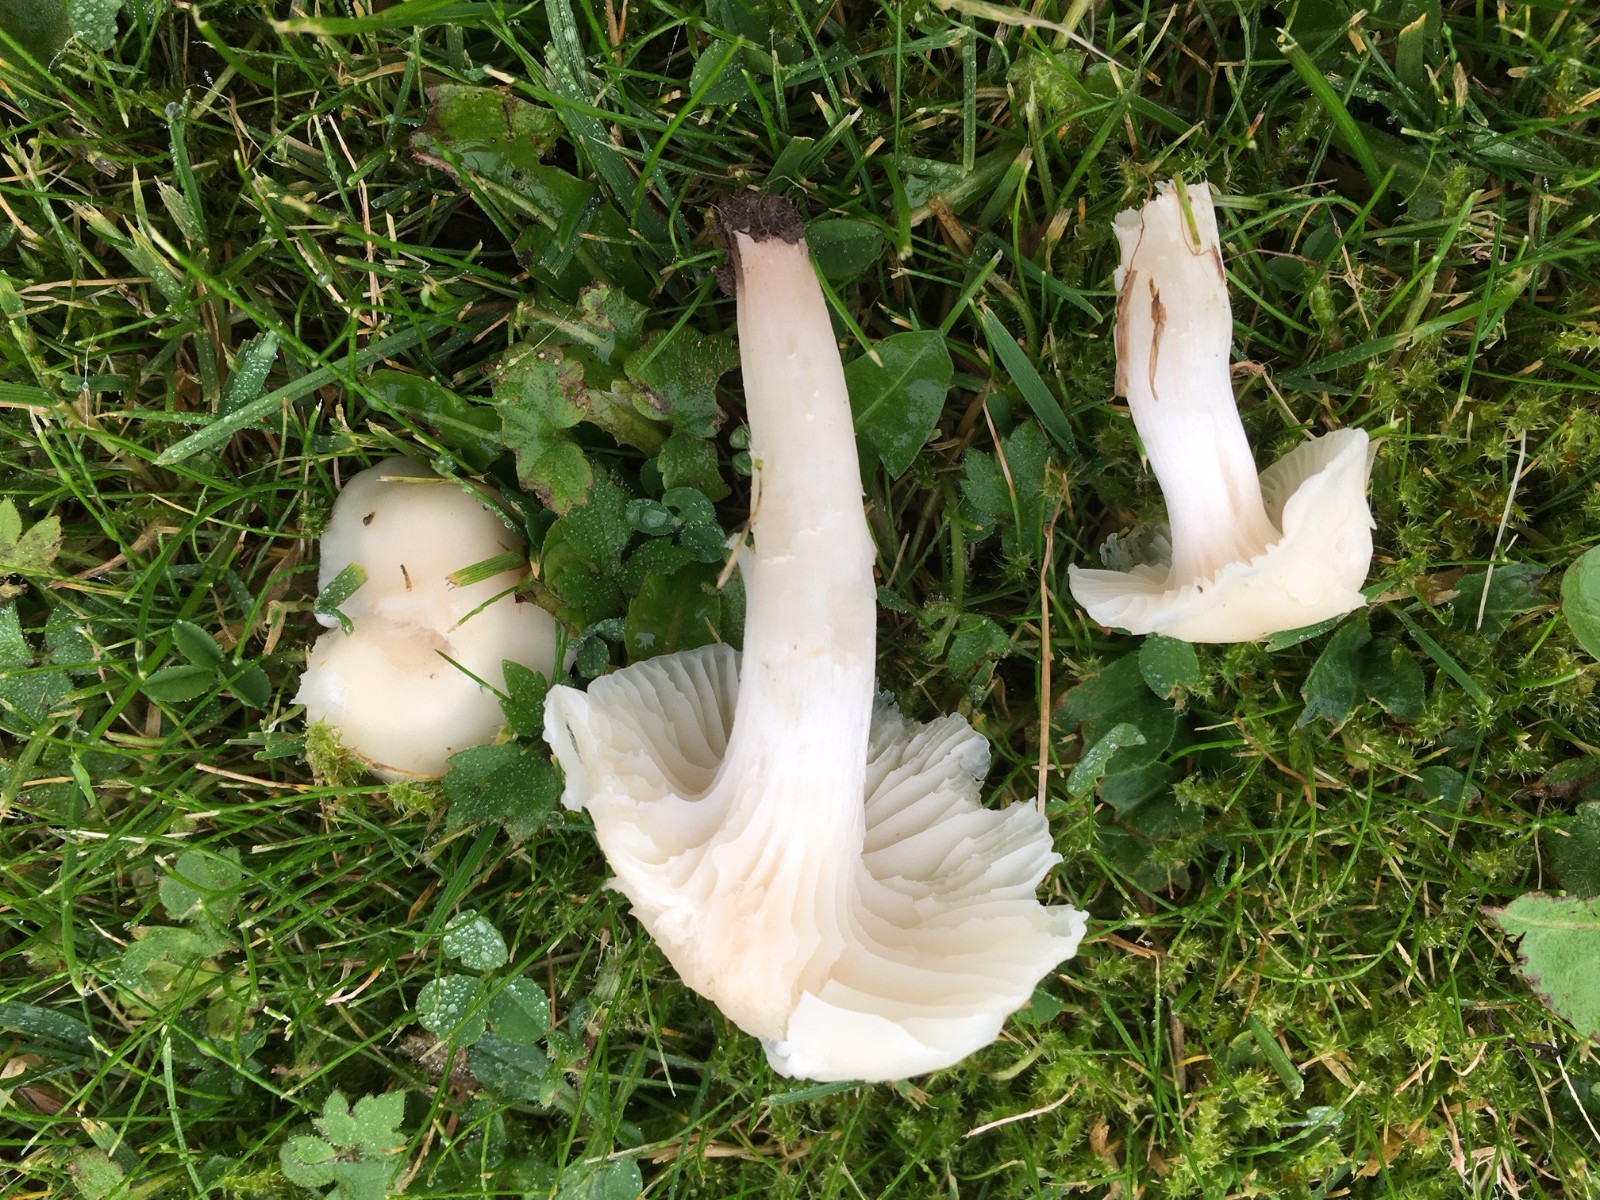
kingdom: Fungi
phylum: Basidiomycota
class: Agaricomycetes
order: Agaricales
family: Hygrophoraceae
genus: Cuphophyllus
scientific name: Cuphophyllus
